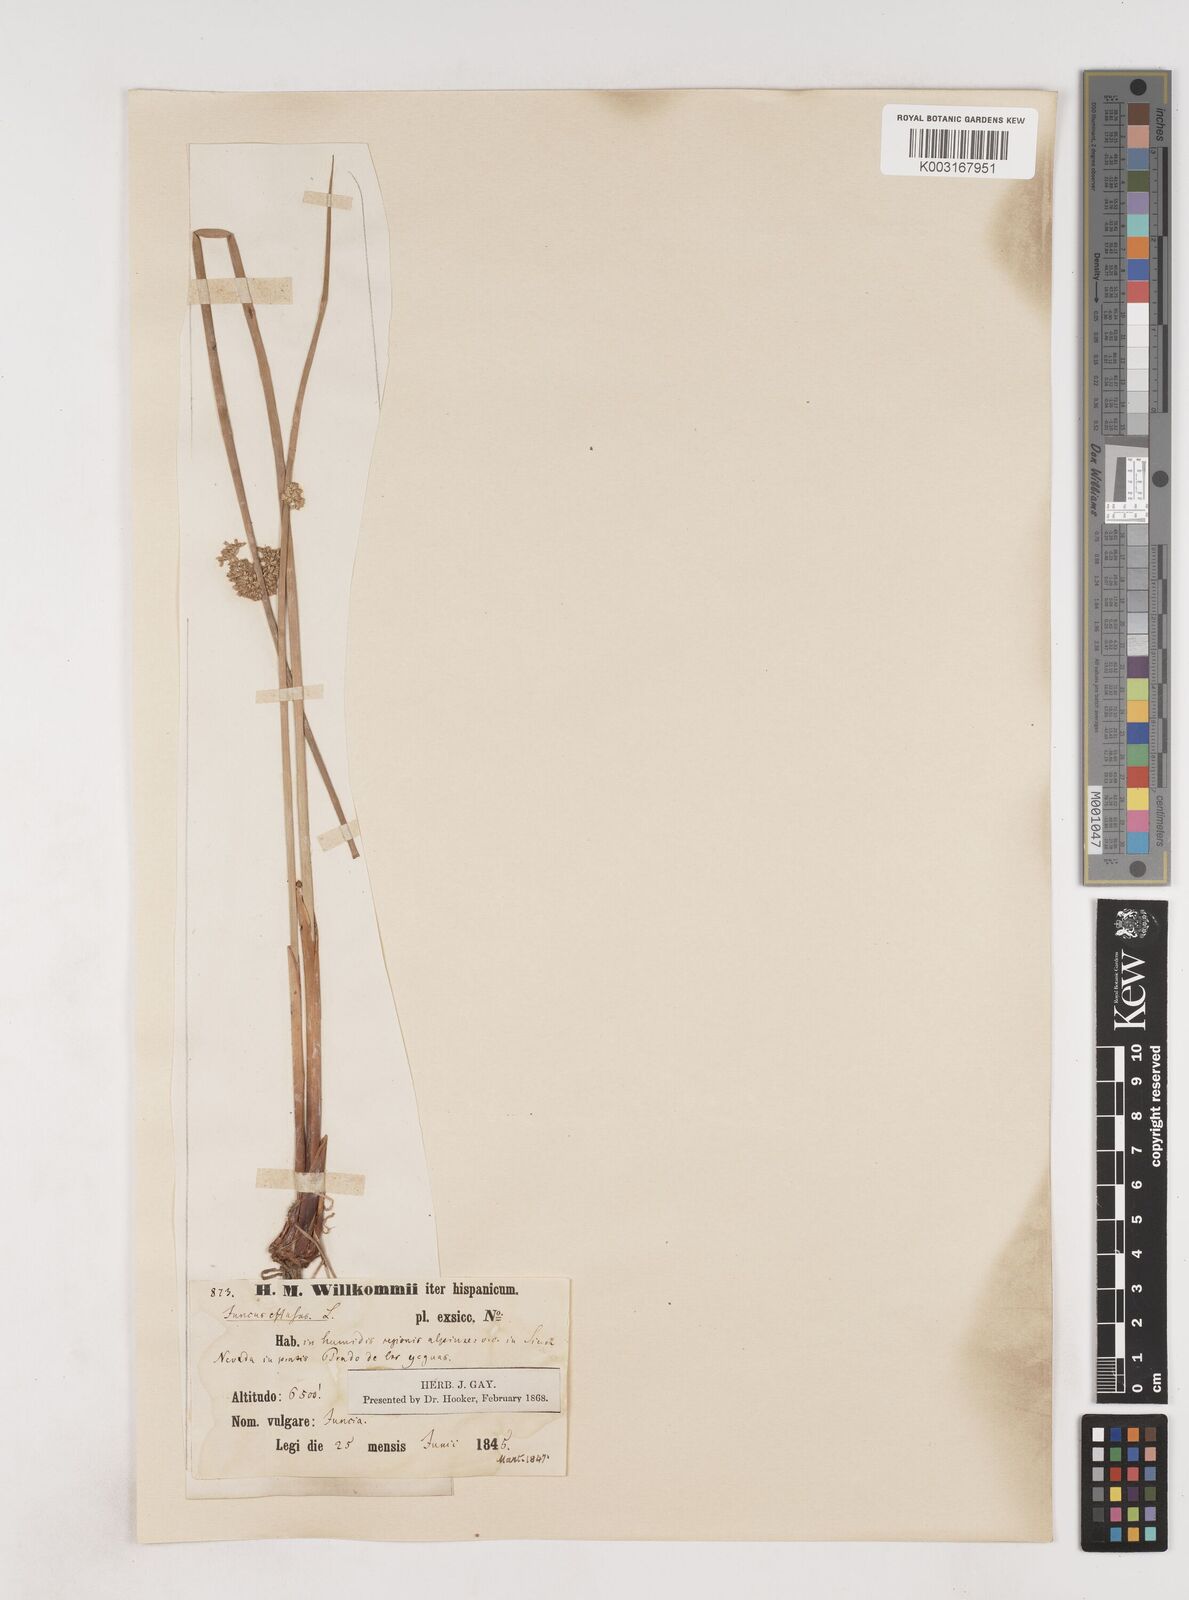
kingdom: Plantae
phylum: Tracheophyta
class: Liliopsida
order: Poales
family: Juncaceae
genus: Juncus
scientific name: Juncus effusus
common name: Soft rush
